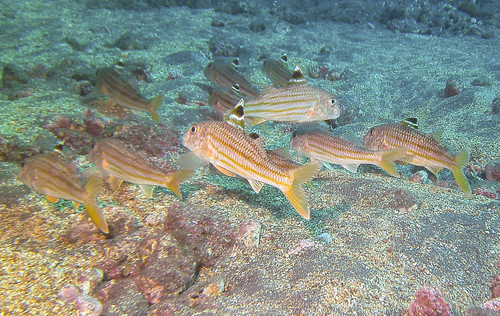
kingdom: Animalia
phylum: Chordata
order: Perciformes
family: Mullidae
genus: Mullus
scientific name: Mullus surmuletus
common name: Red mullet
